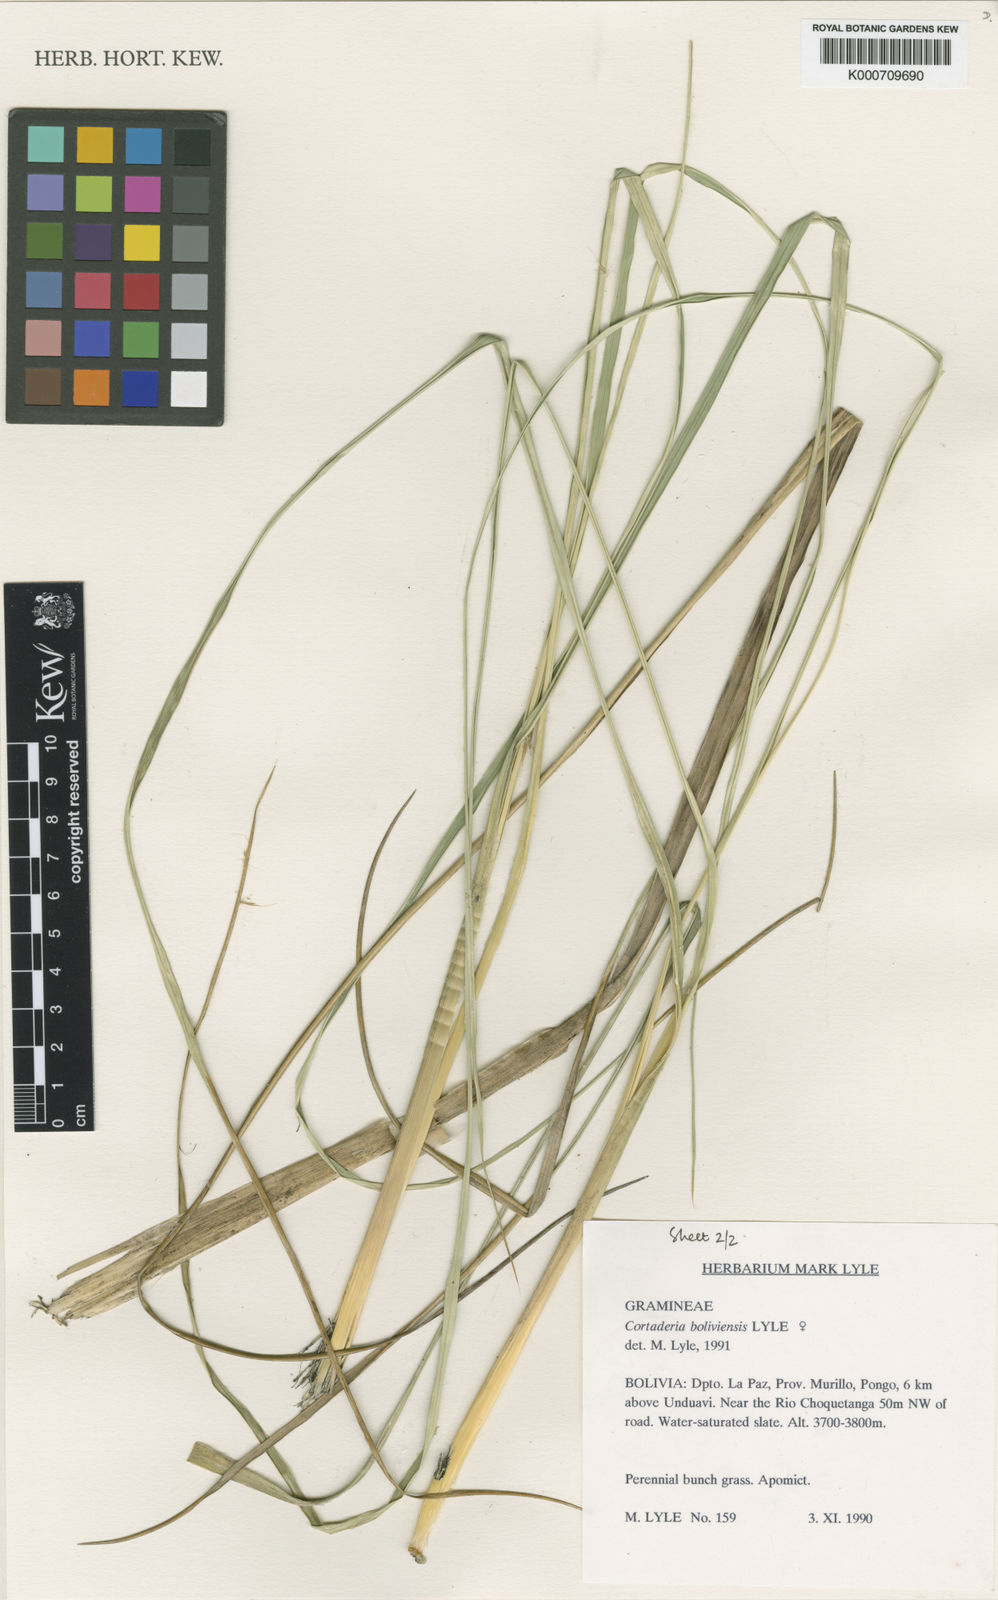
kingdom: Plantae
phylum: Tracheophyta
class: Liliopsida
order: Poales
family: Poaceae
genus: Cortaderia
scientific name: Cortaderia boliviensis
